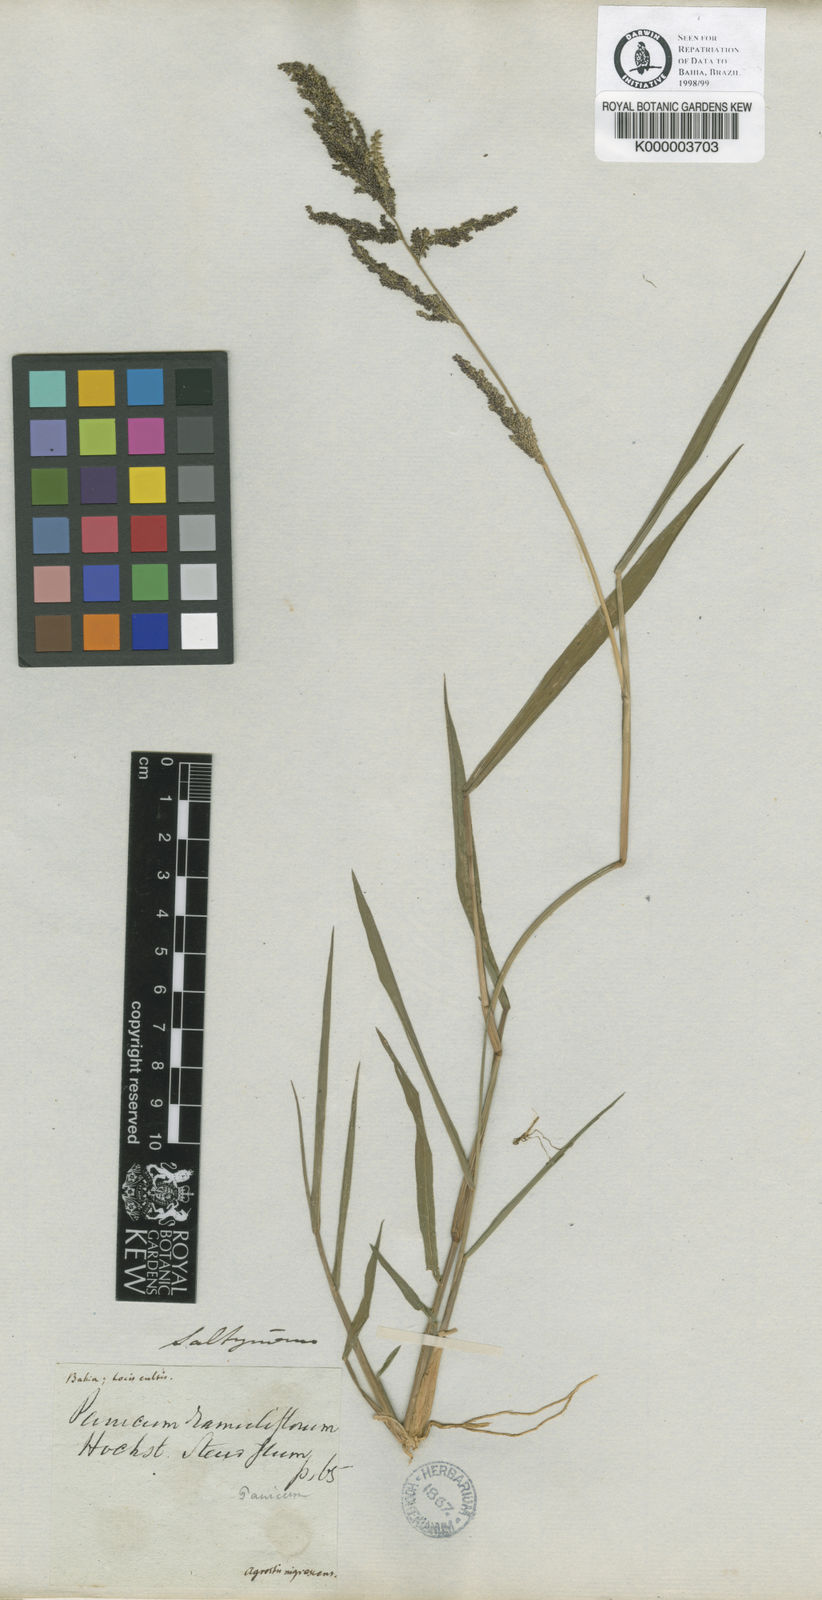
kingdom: Plantae
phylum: Tracheophyta
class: Liliopsida
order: Poales
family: Poaceae
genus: Panicum
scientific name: Panicum
